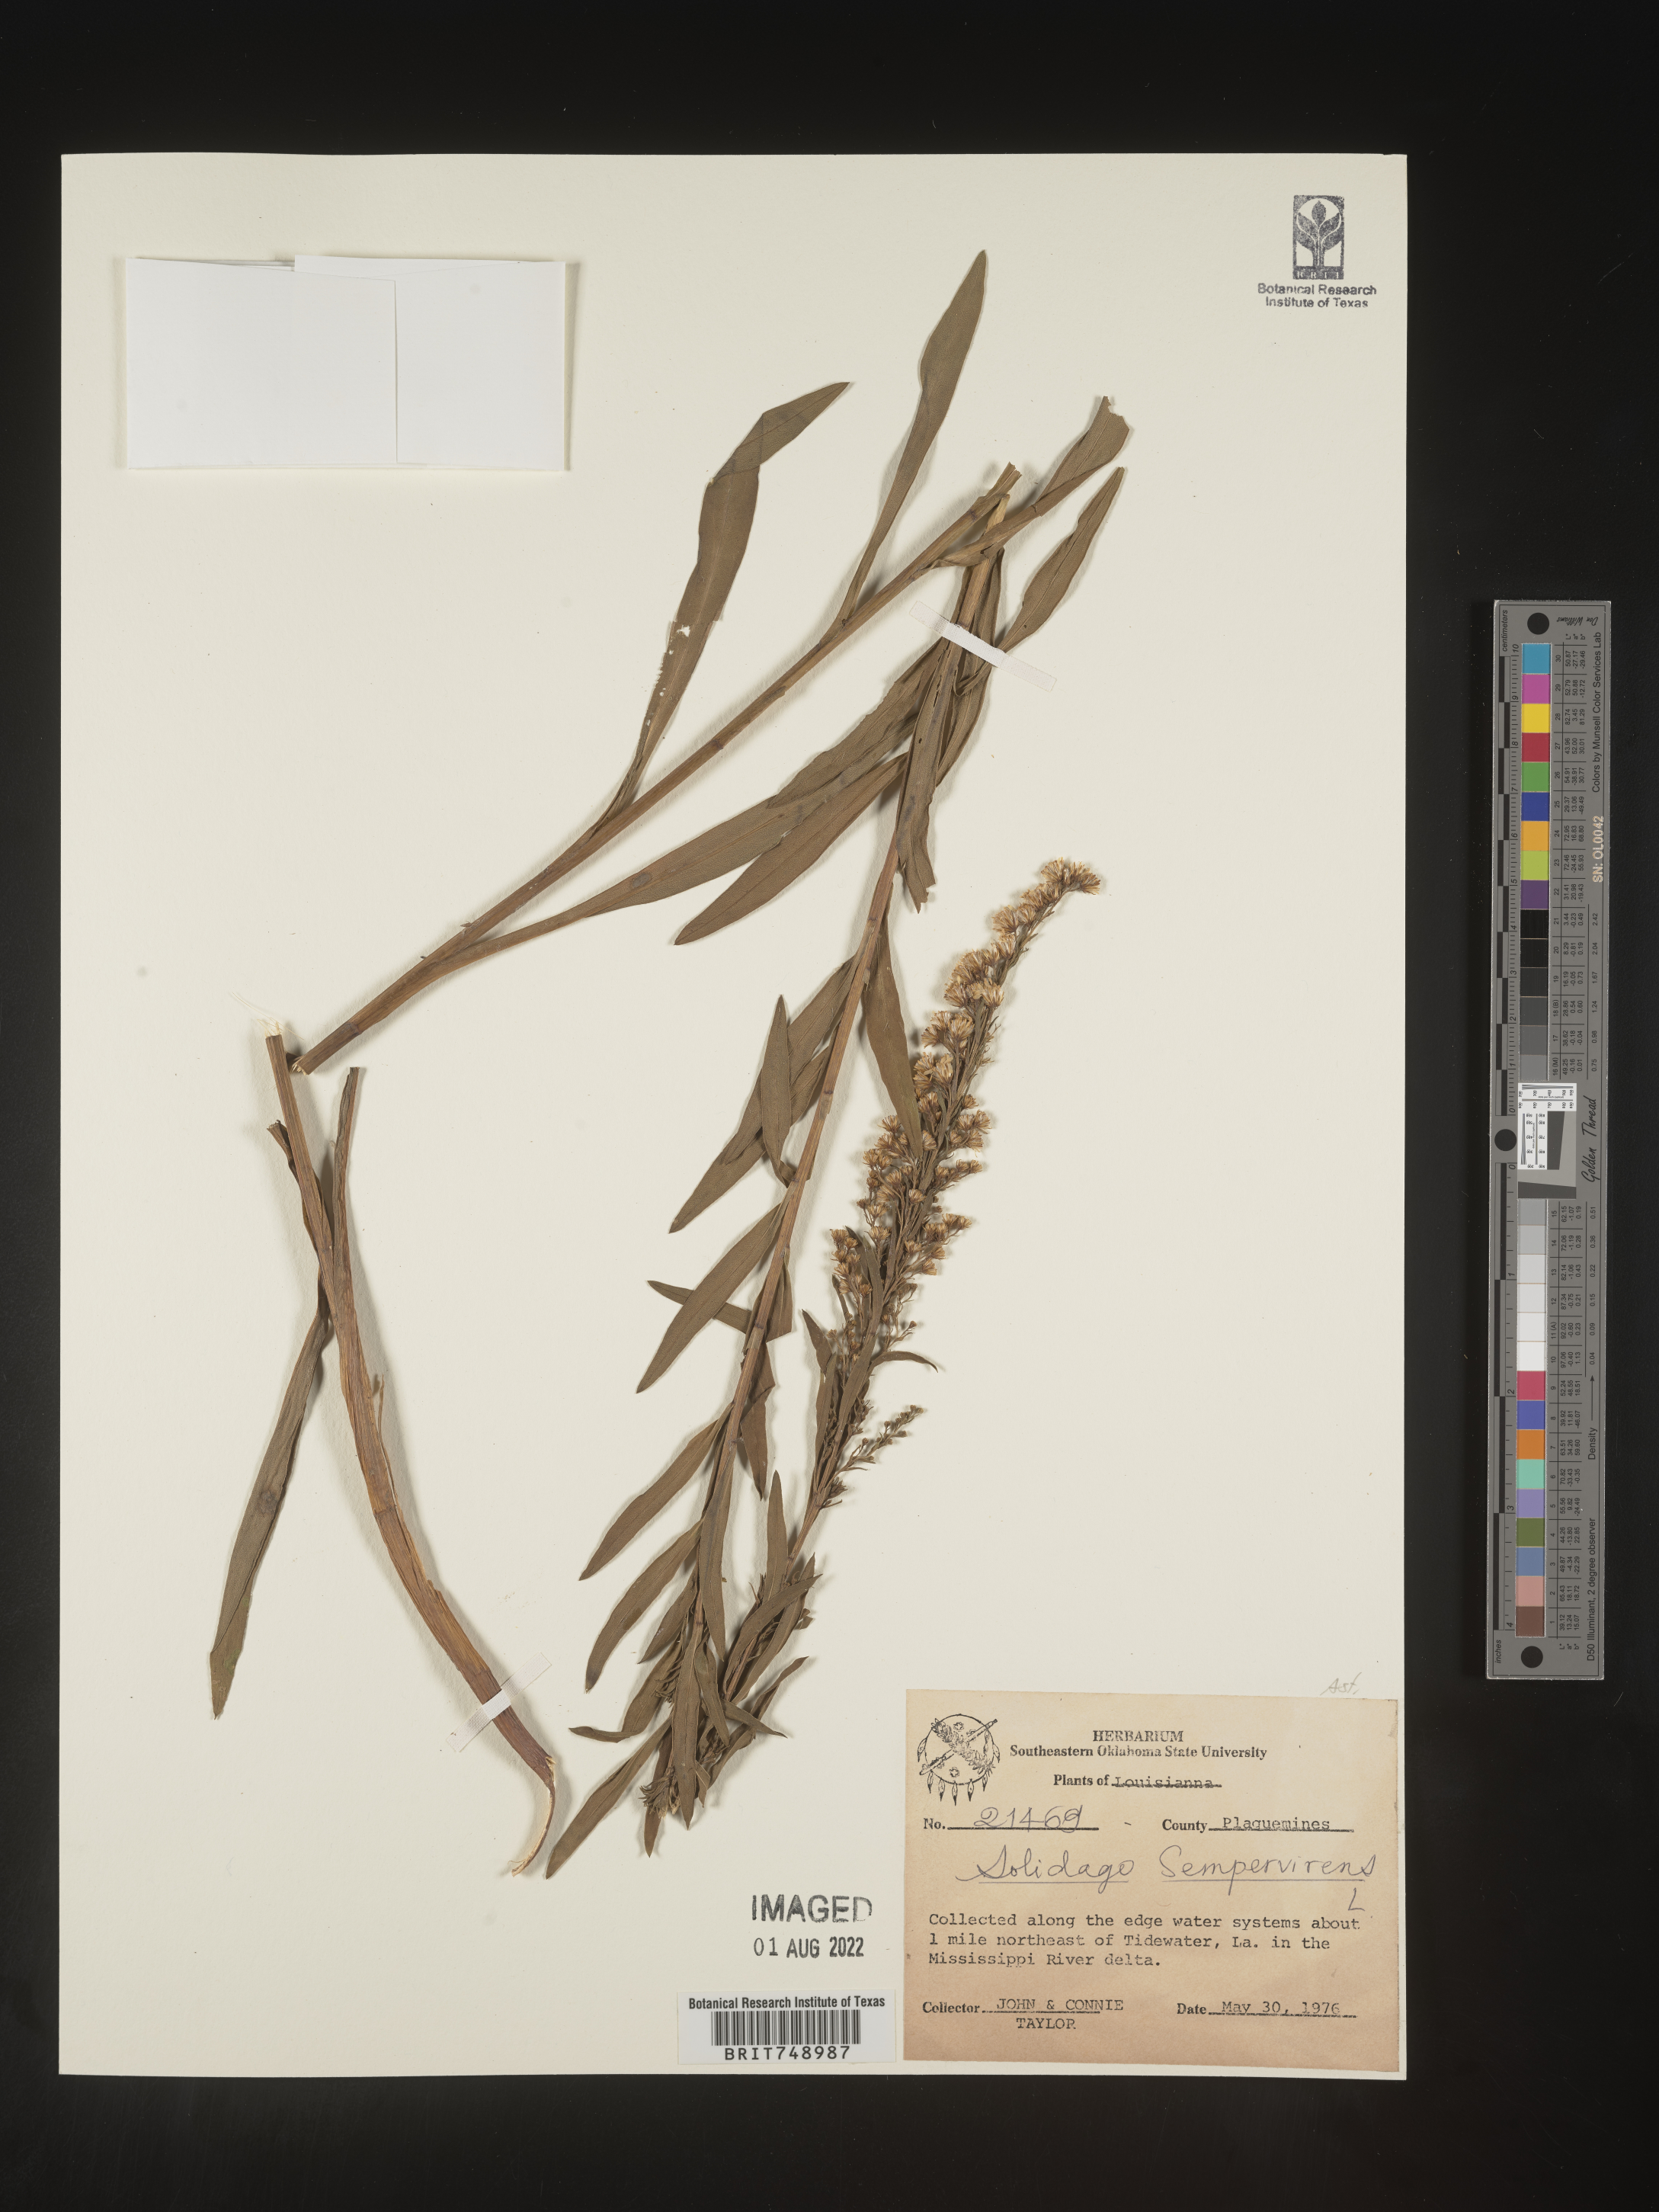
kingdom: Plantae
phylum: Tracheophyta
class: Magnoliopsida
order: Asterales
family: Asteraceae
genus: Solidago
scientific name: Solidago sempervirens
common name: Salt-marsh goldenrod
